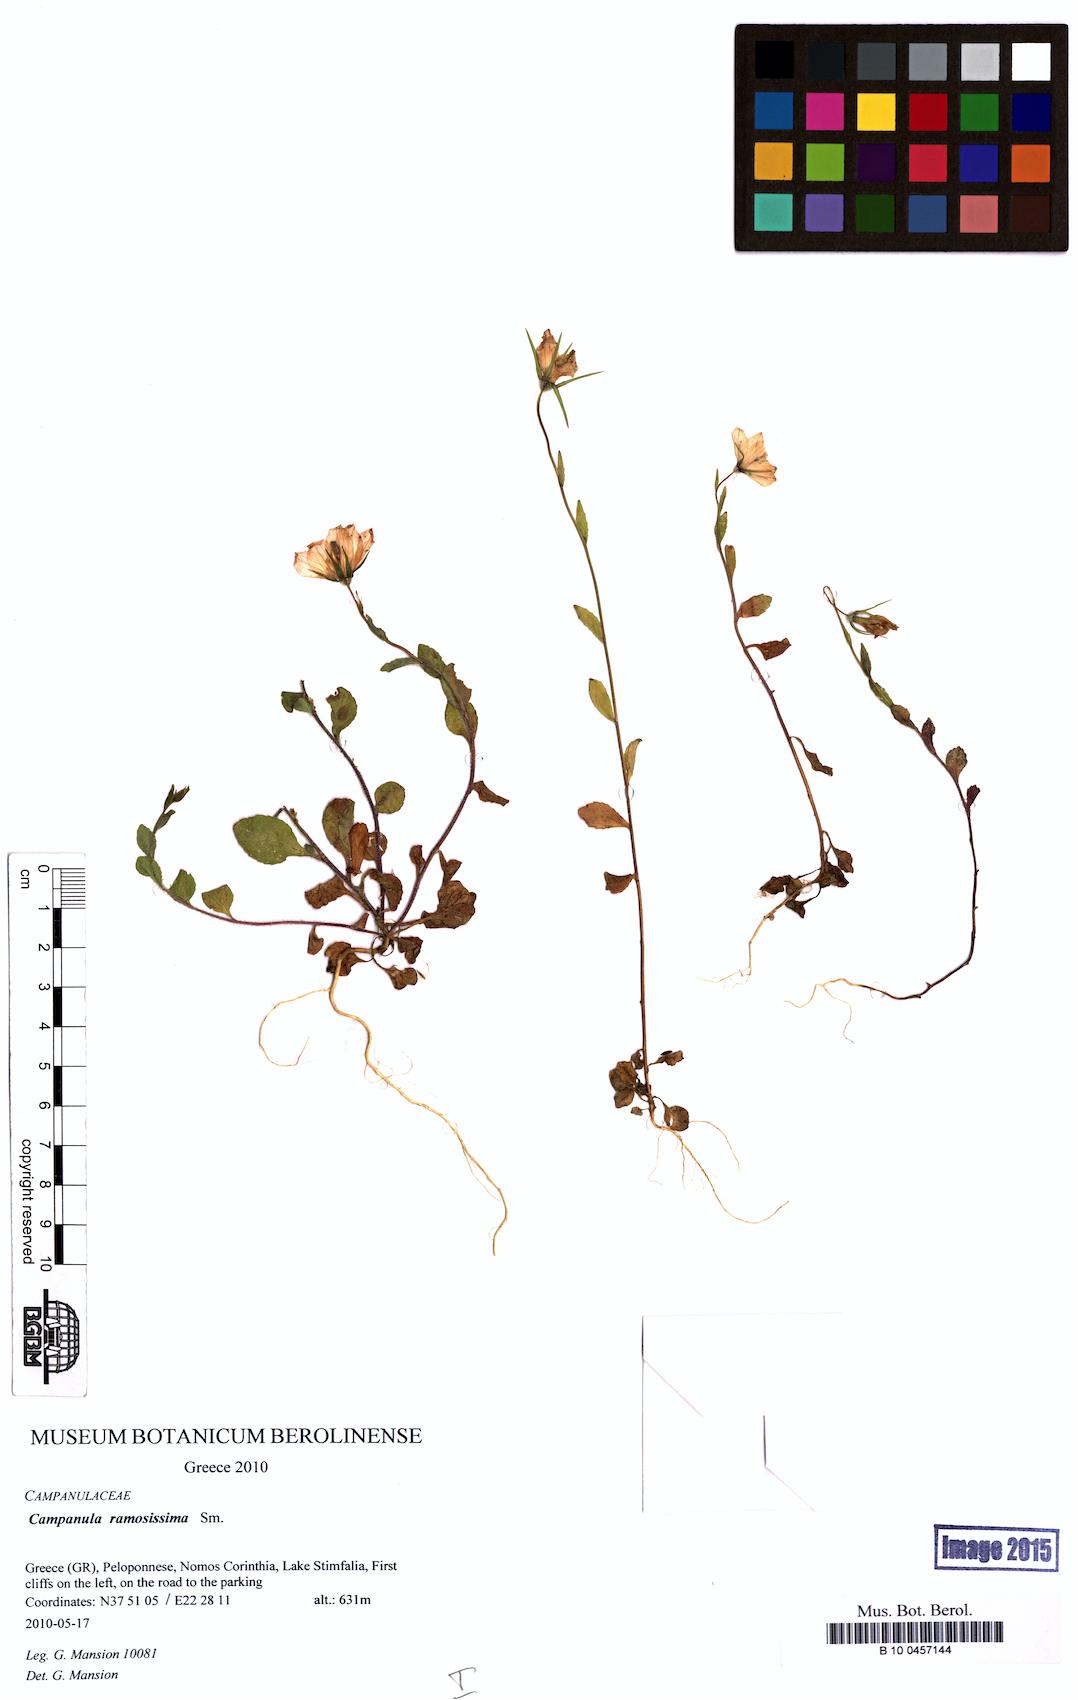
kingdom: Plantae
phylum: Tracheophyta
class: Magnoliopsida
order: Asterales
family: Campanulaceae
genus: Campanula
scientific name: Campanula ramosissima
